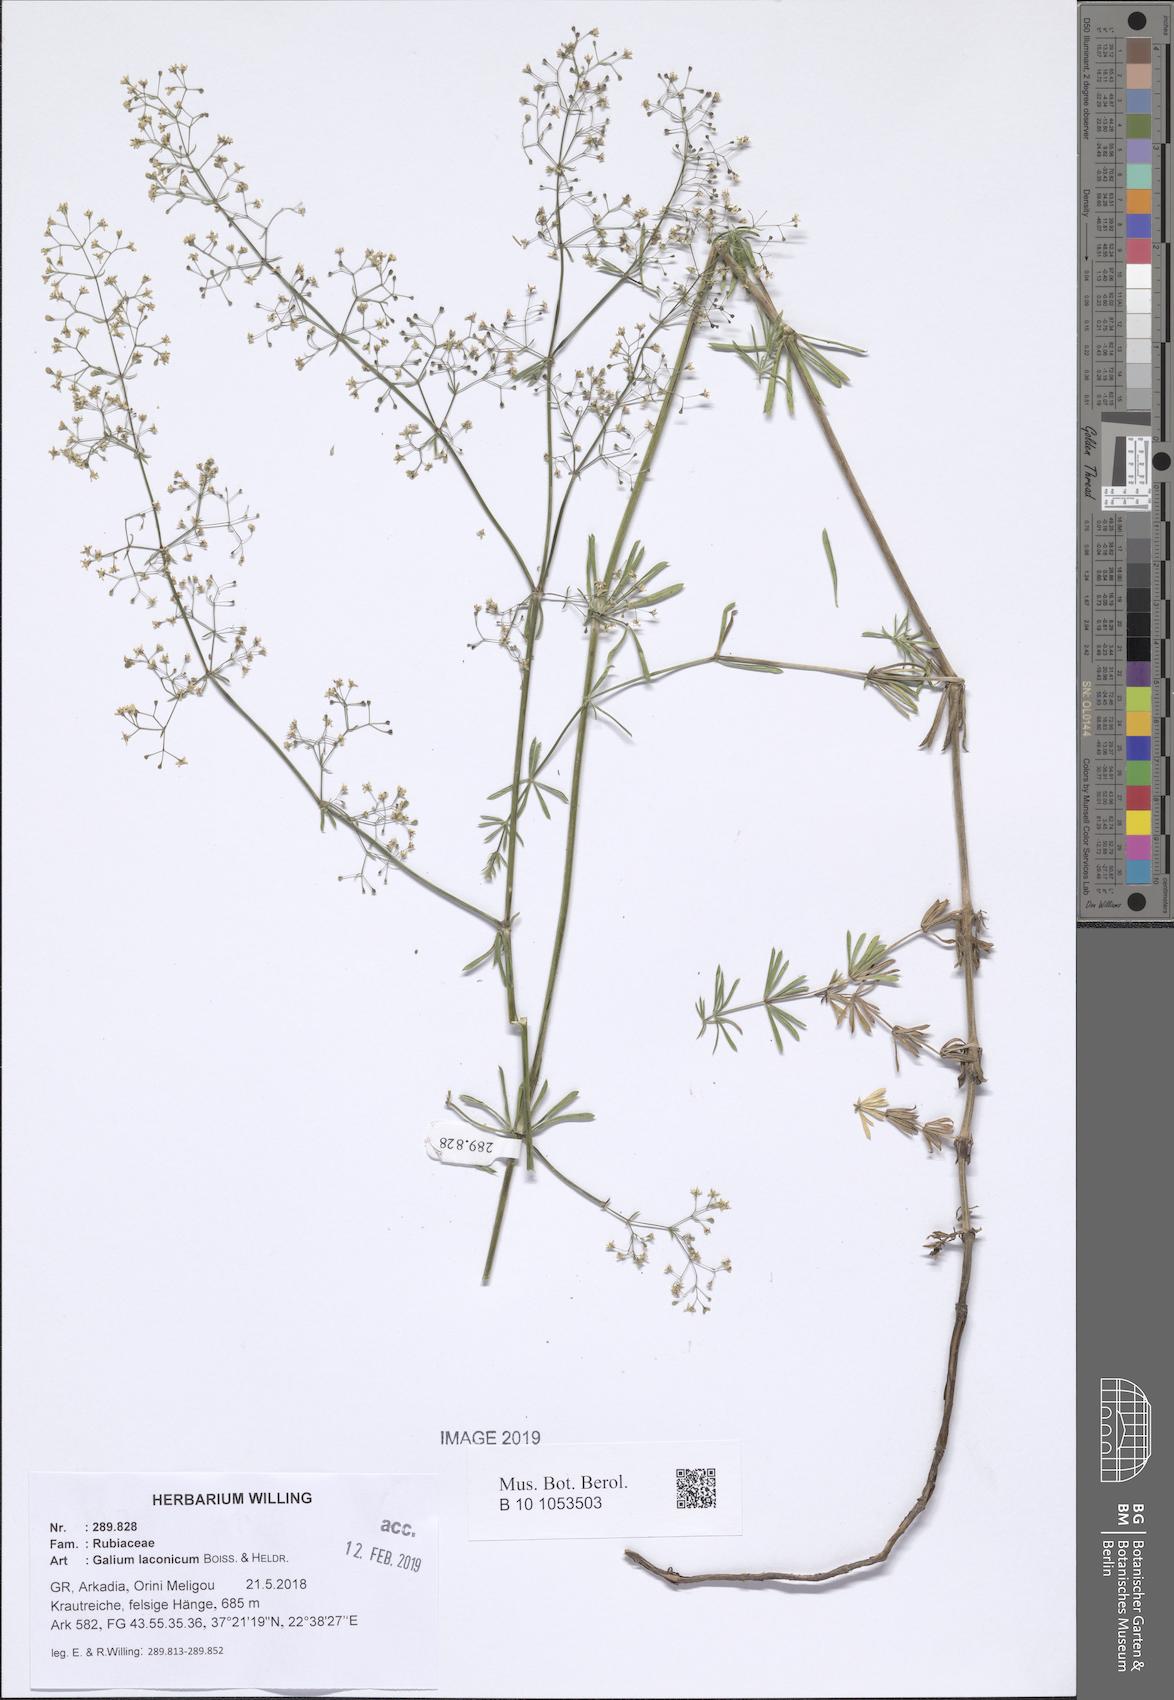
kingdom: Plantae
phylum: Tracheophyta
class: Magnoliopsida
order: Gentianales
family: Rubiaceae
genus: Galium
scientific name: Galium laconicum
